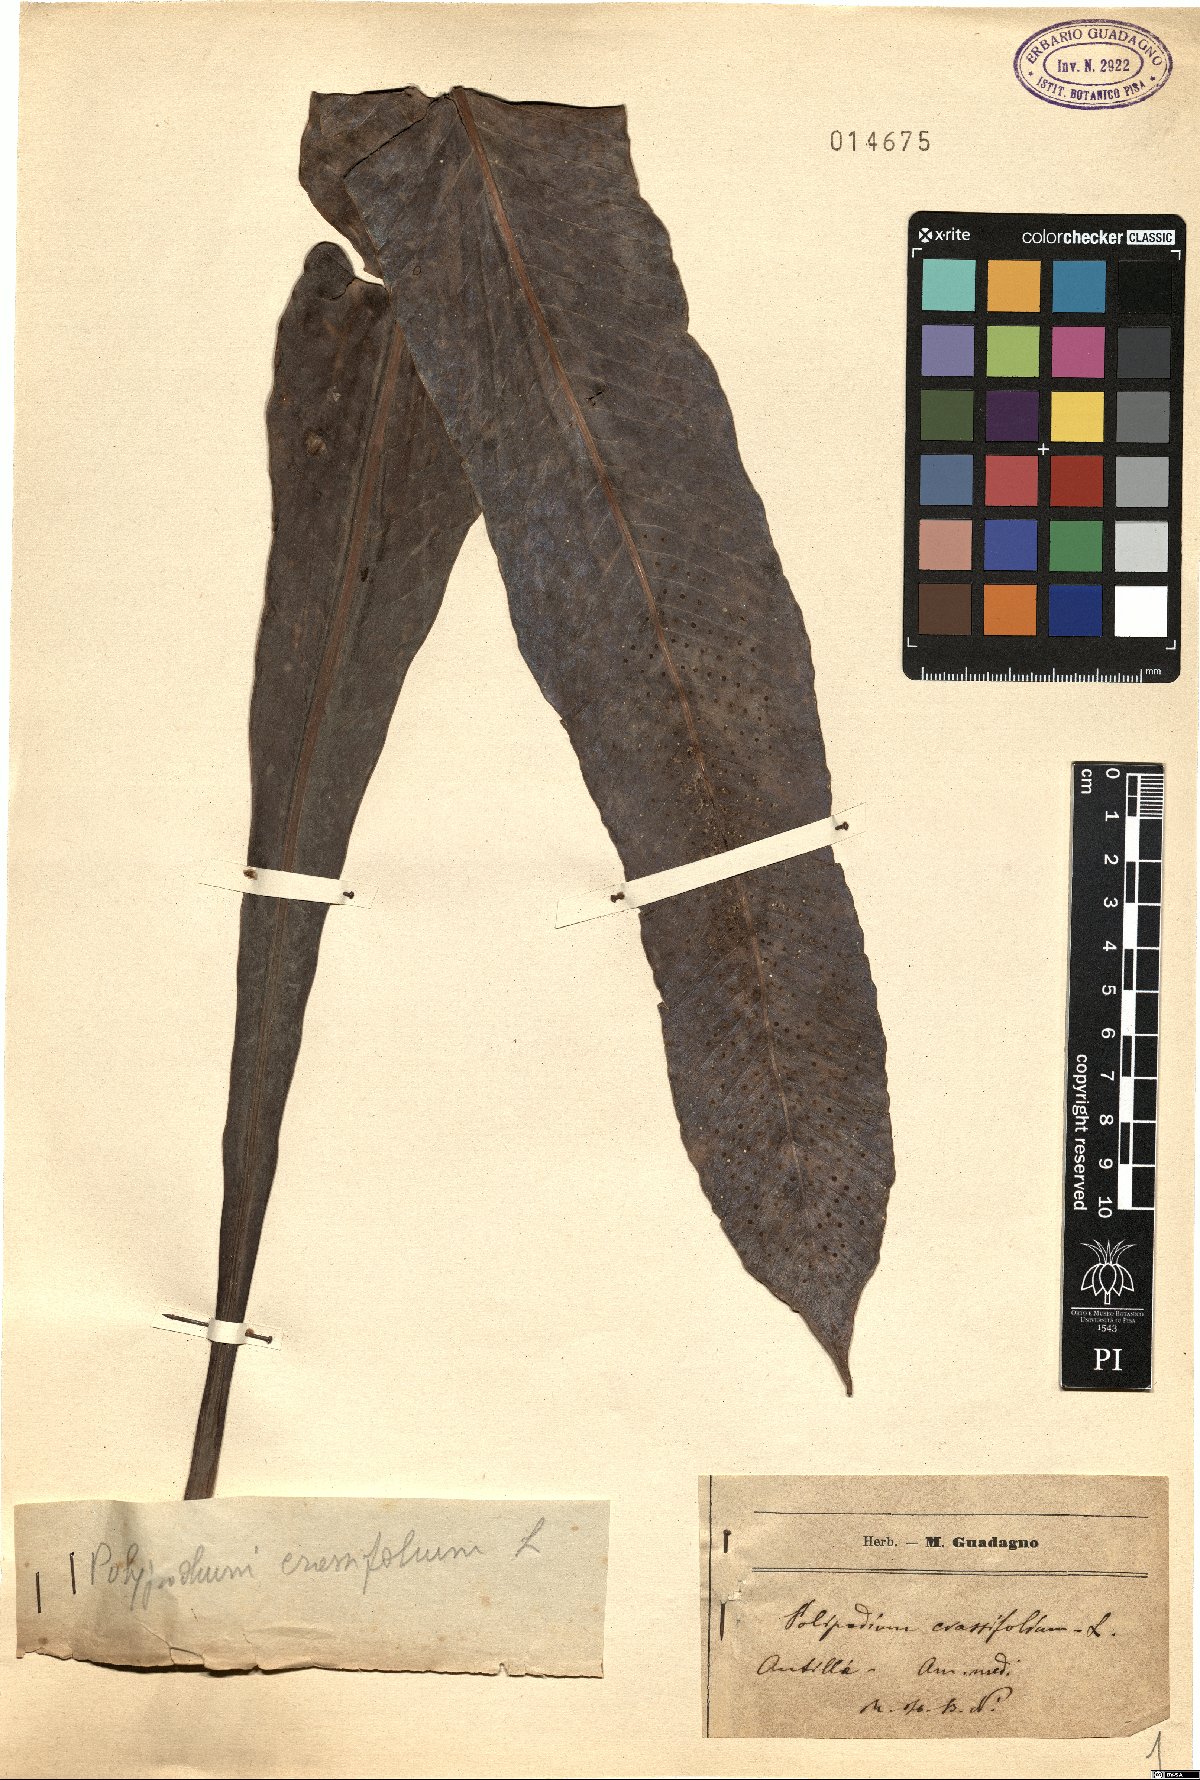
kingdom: Plantae
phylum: Tracheophyta
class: Polypodiopsida
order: Polypodiales
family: Polypodiaceae
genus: Niphidium
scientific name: Niphidium crassifolium
